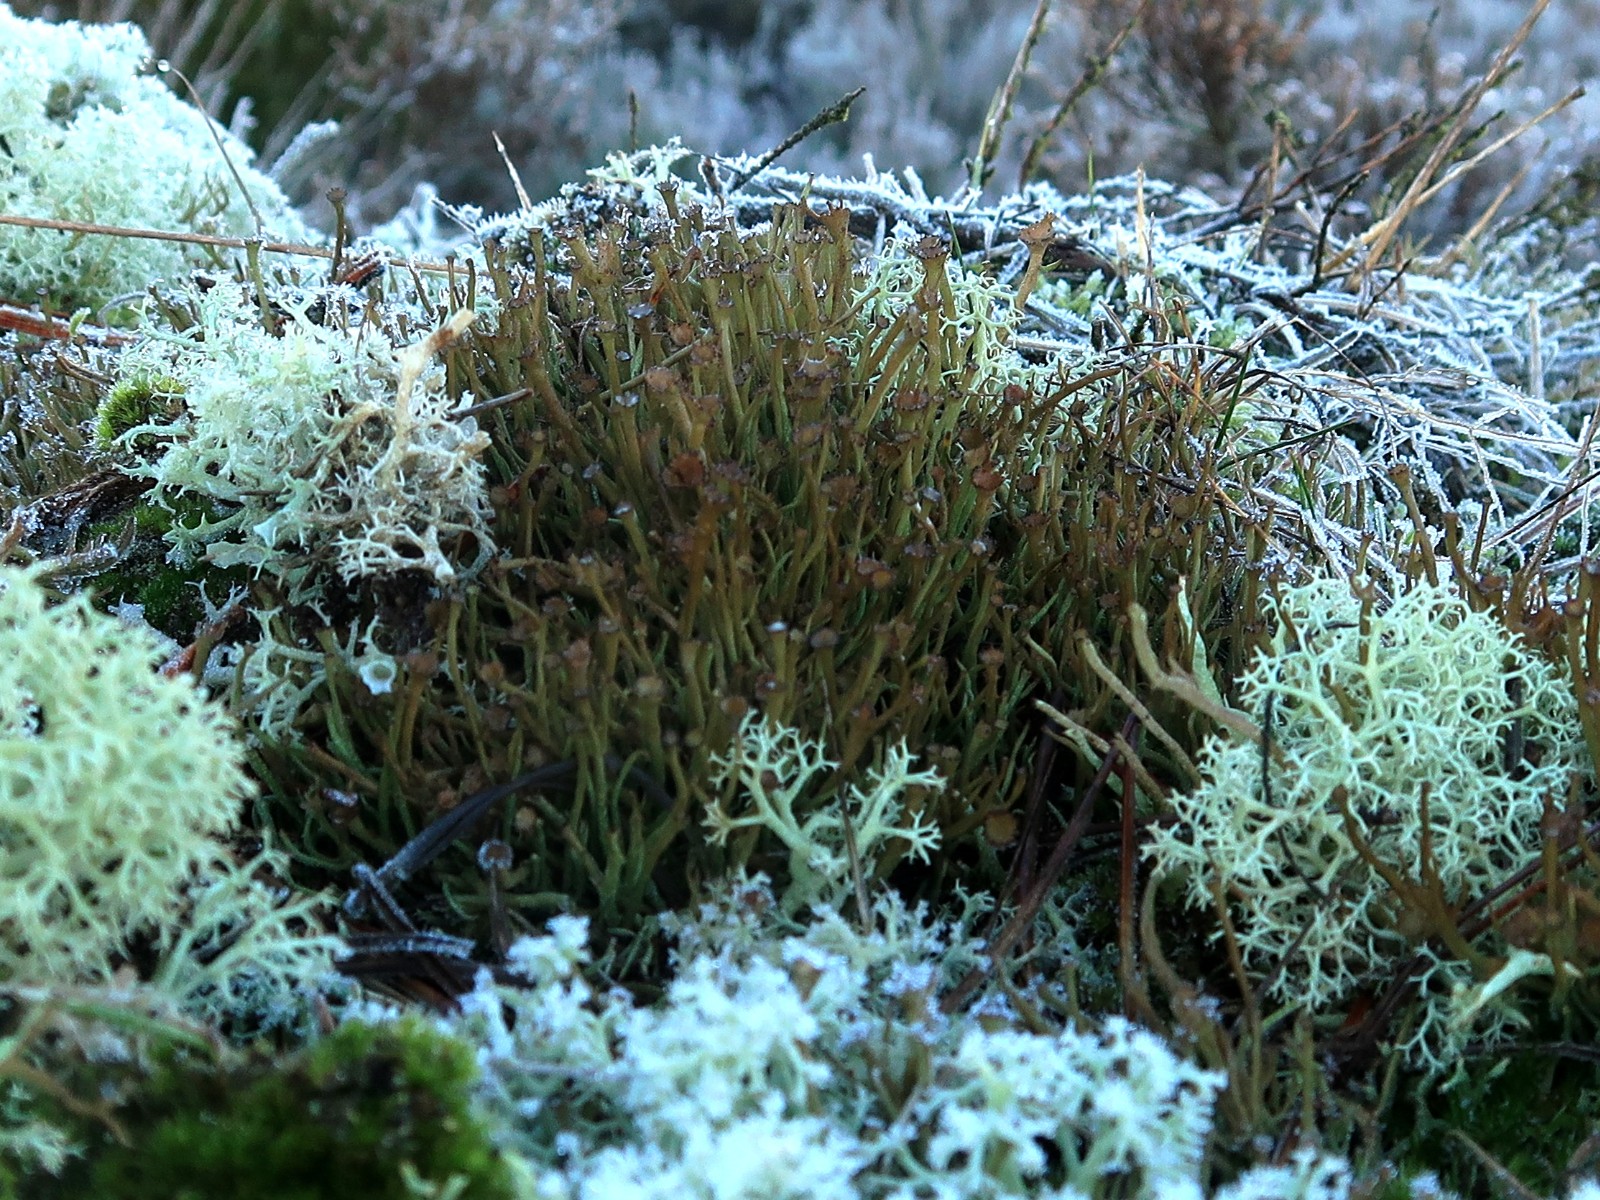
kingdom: Fungi
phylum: Ascomycota
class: Lecanoromycetes
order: Lecanorales
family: Cladoniaceae
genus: Cladonia
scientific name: Cladonia gracilis
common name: slank bægerlav
